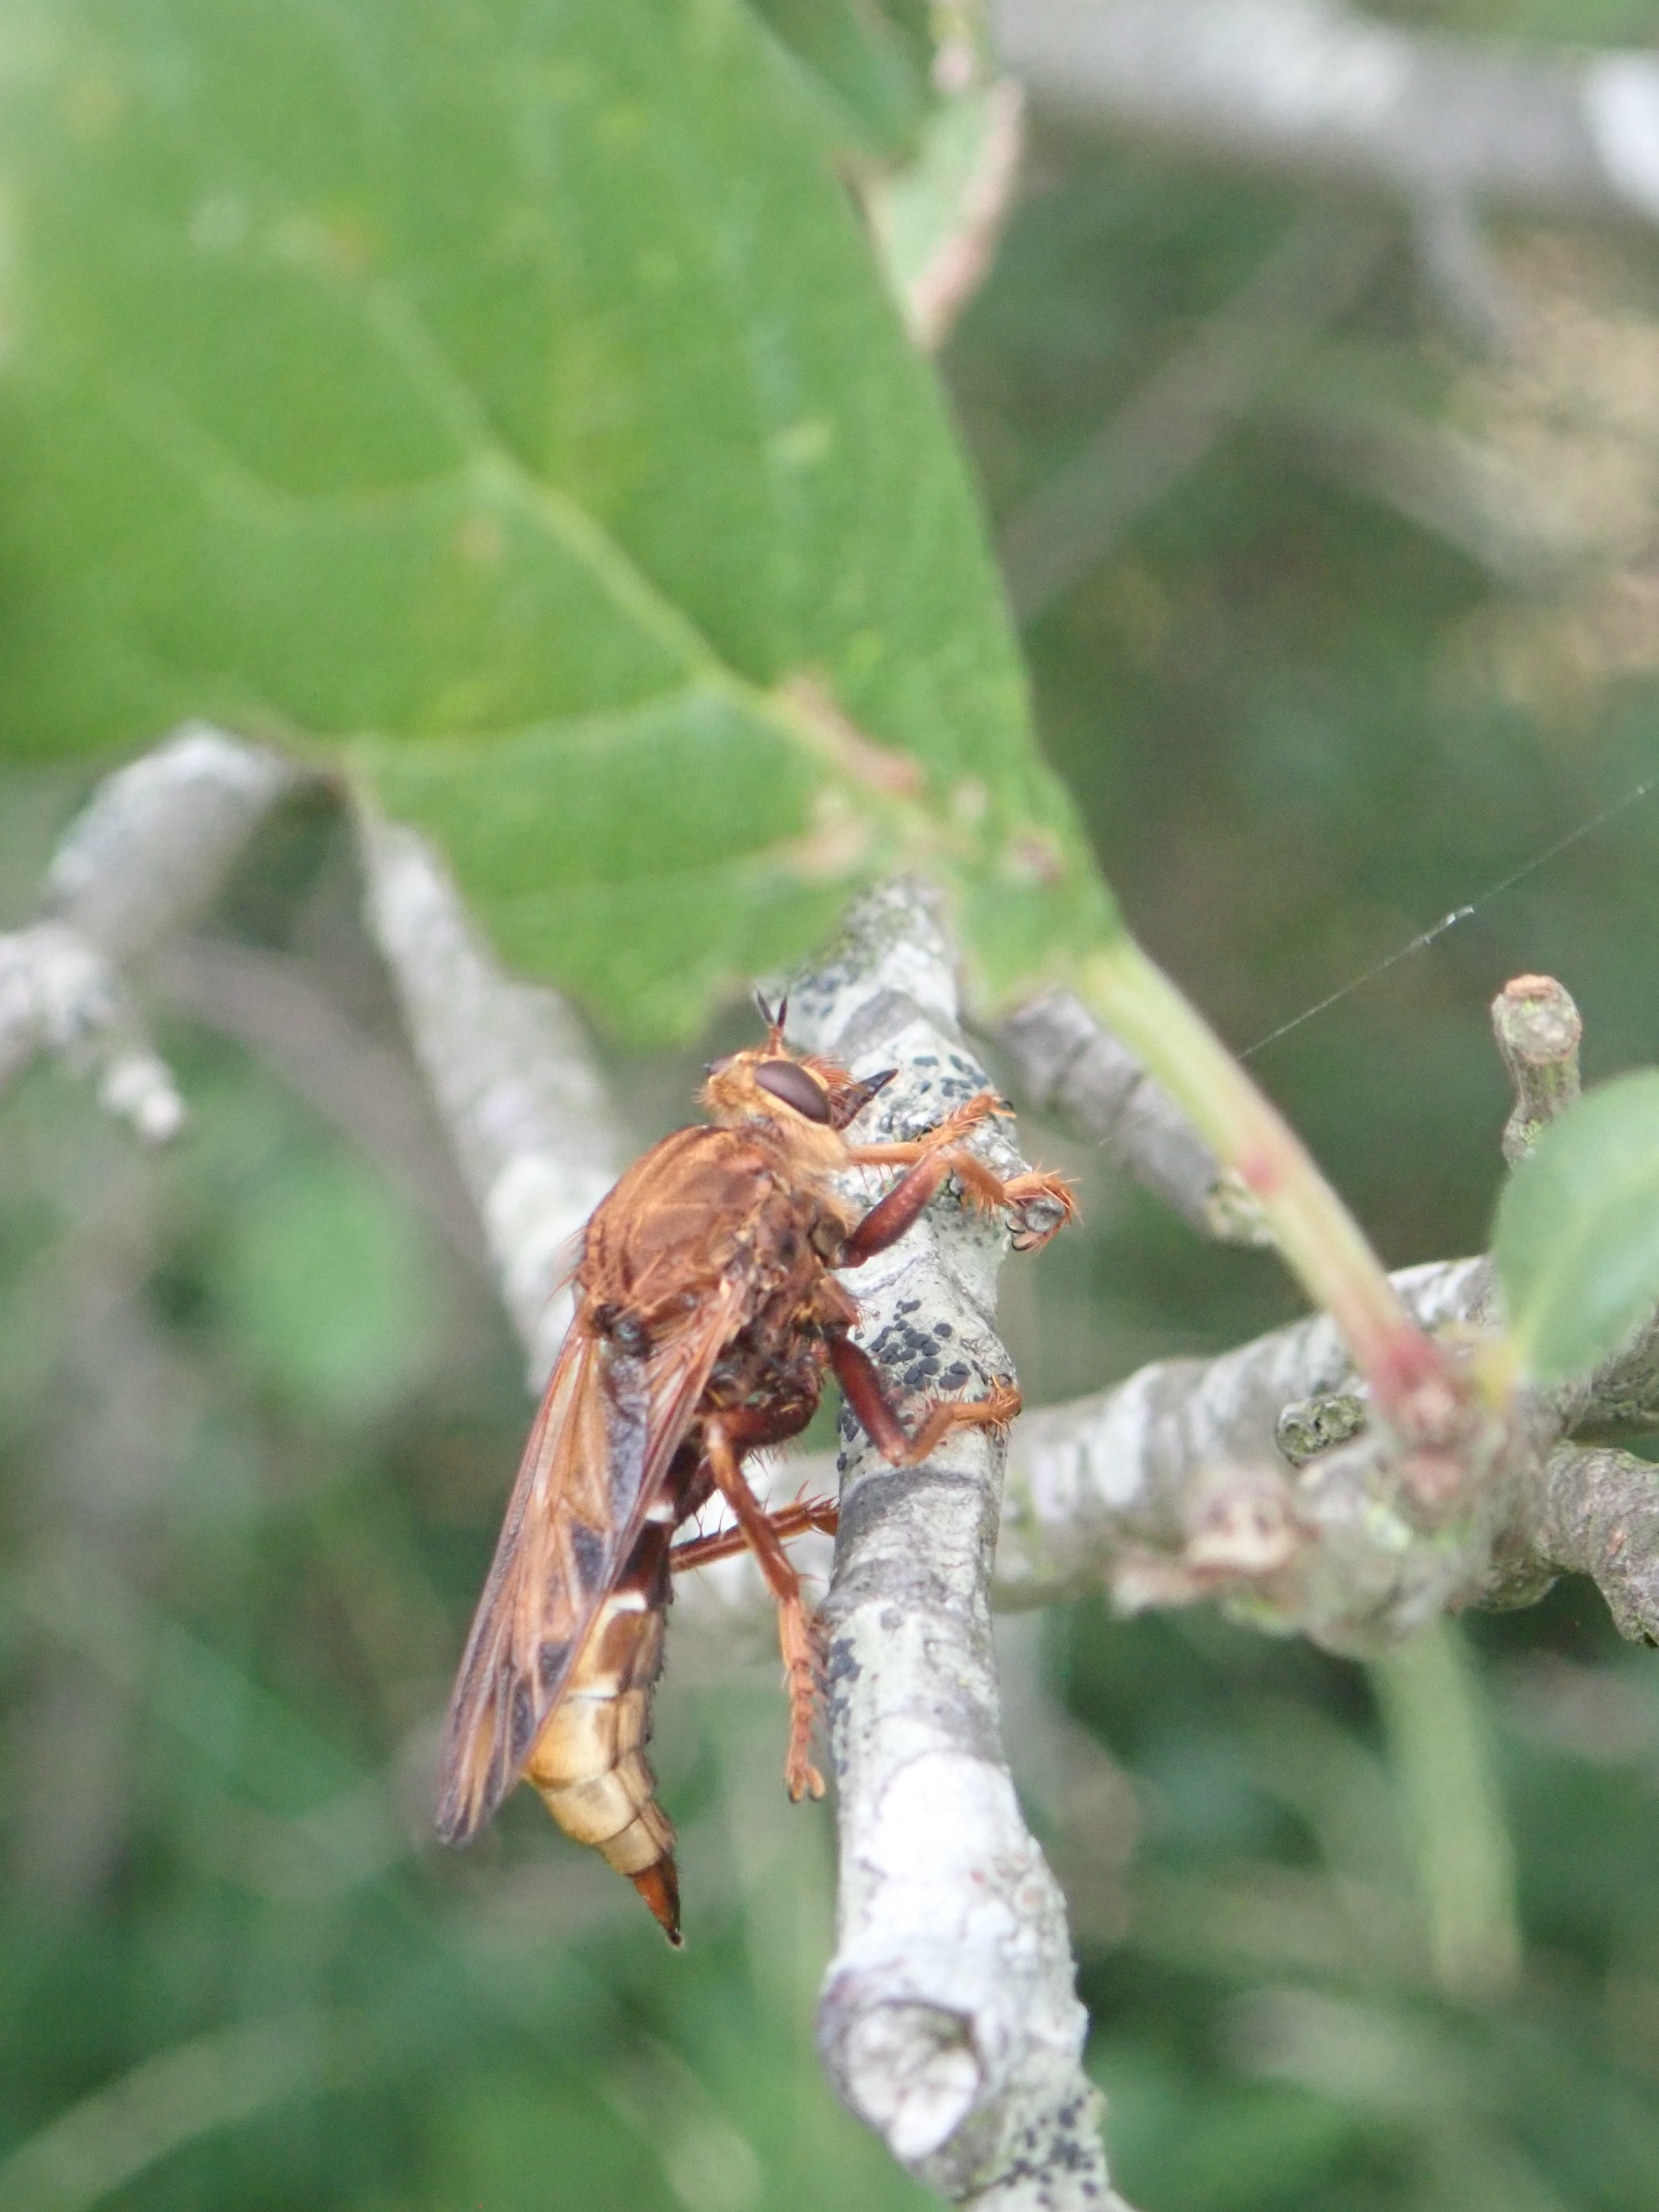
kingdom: Animalia
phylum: Arthropoda
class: Insecta
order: Diptera
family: Asilidae
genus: Asilus
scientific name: Asilus crabroniformis
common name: Stor gødningsrovflue
